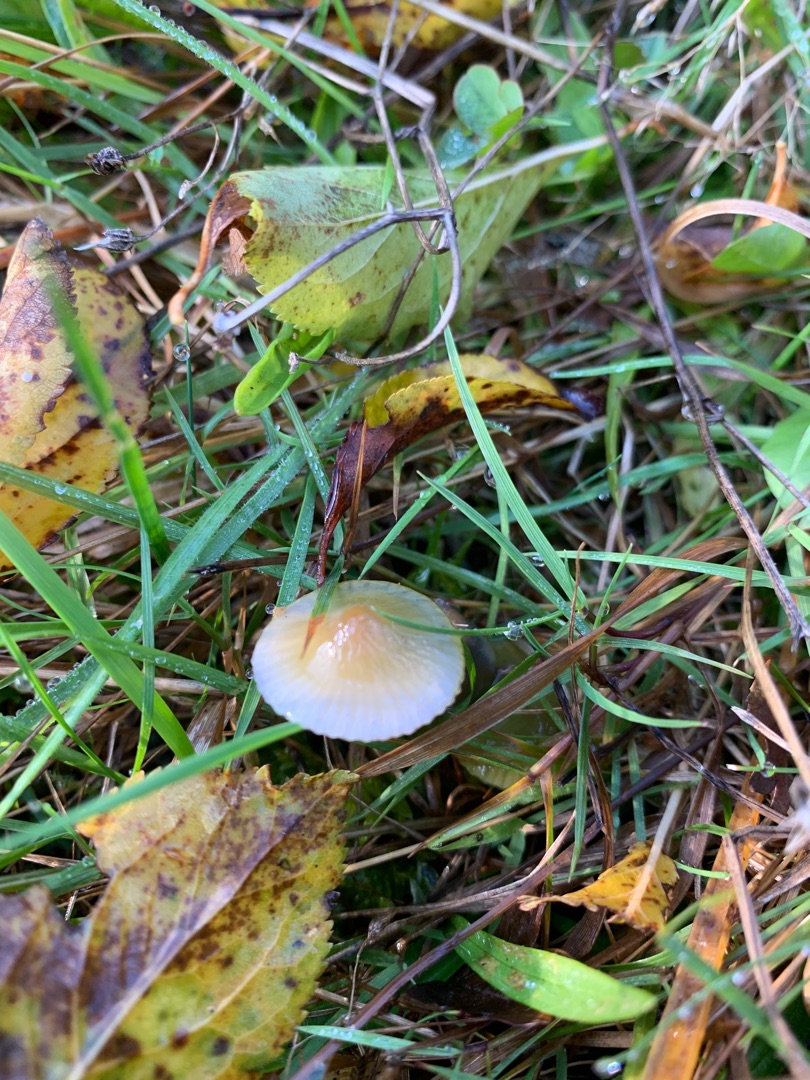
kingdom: Fungi
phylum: Basidiomycota
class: Agaricomycetes
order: Agaricales
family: Hygrophoraceae
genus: Gliophorus
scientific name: Gliophorus psittacinus
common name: Papegøje-vokshat
